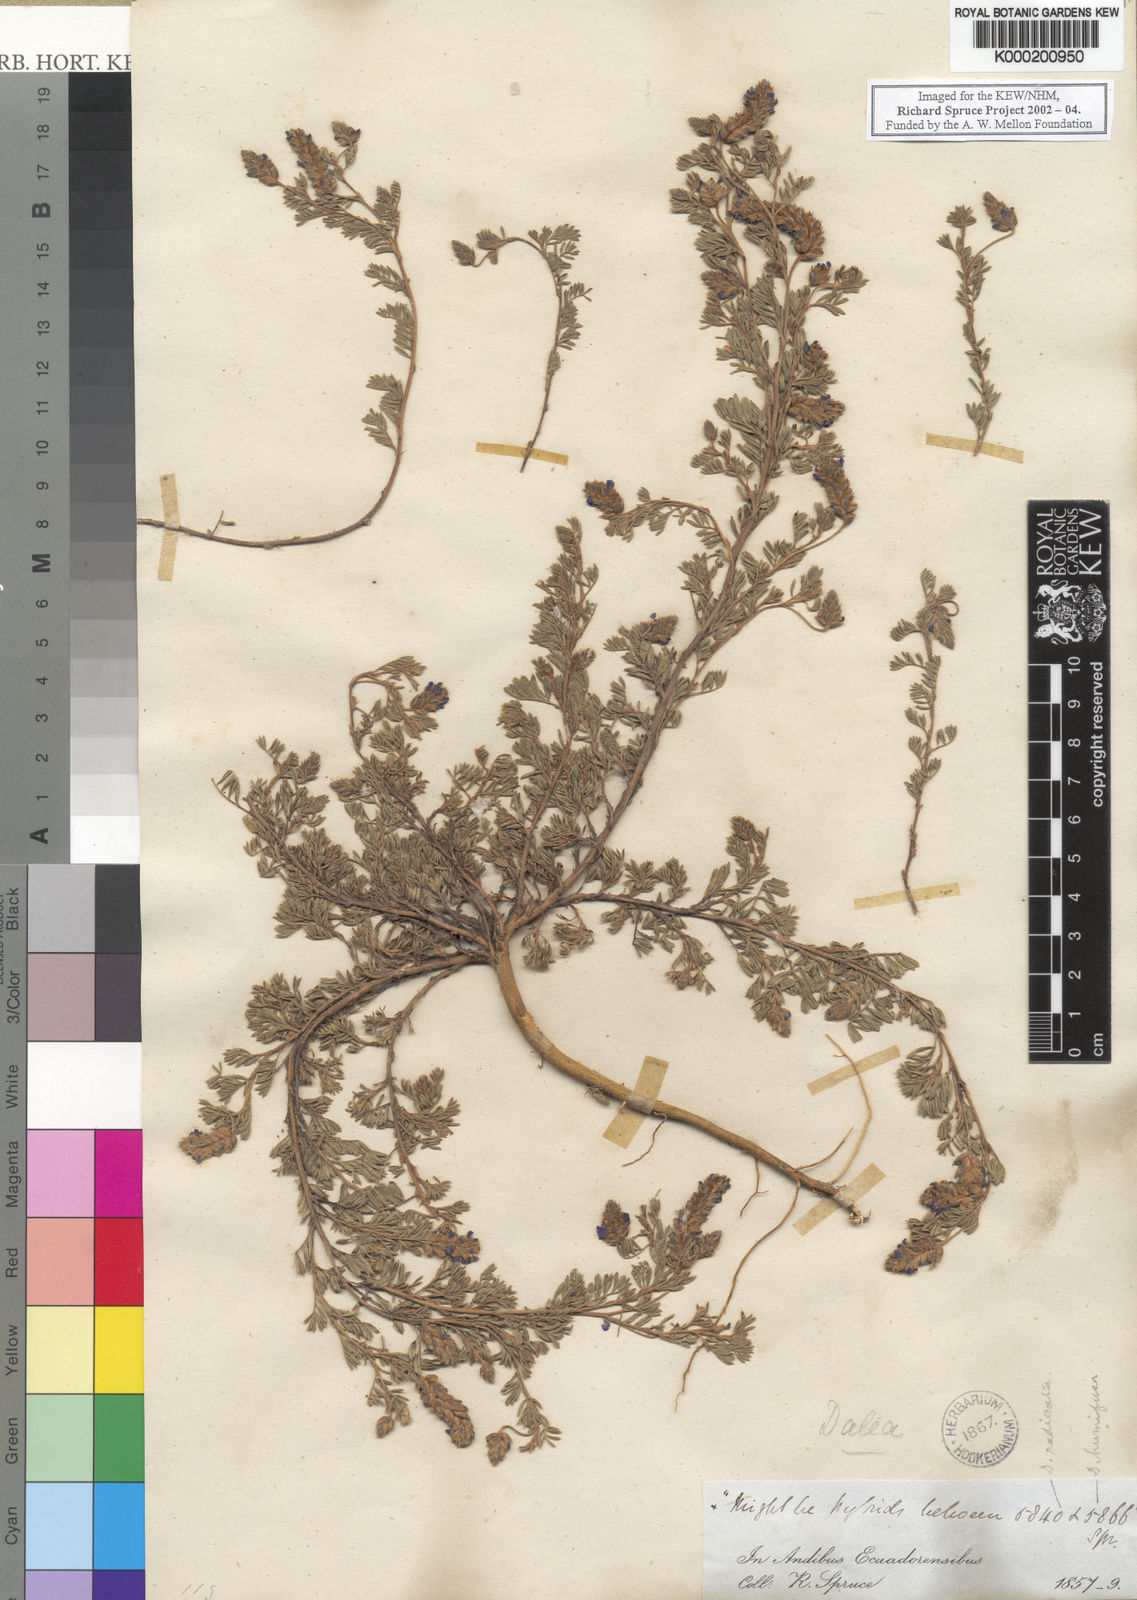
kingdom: Plantae
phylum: Tracheophyta
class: Magnoliopsida
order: Fabales
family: Fabaceae
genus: Dalea
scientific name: Dalea humifusa
